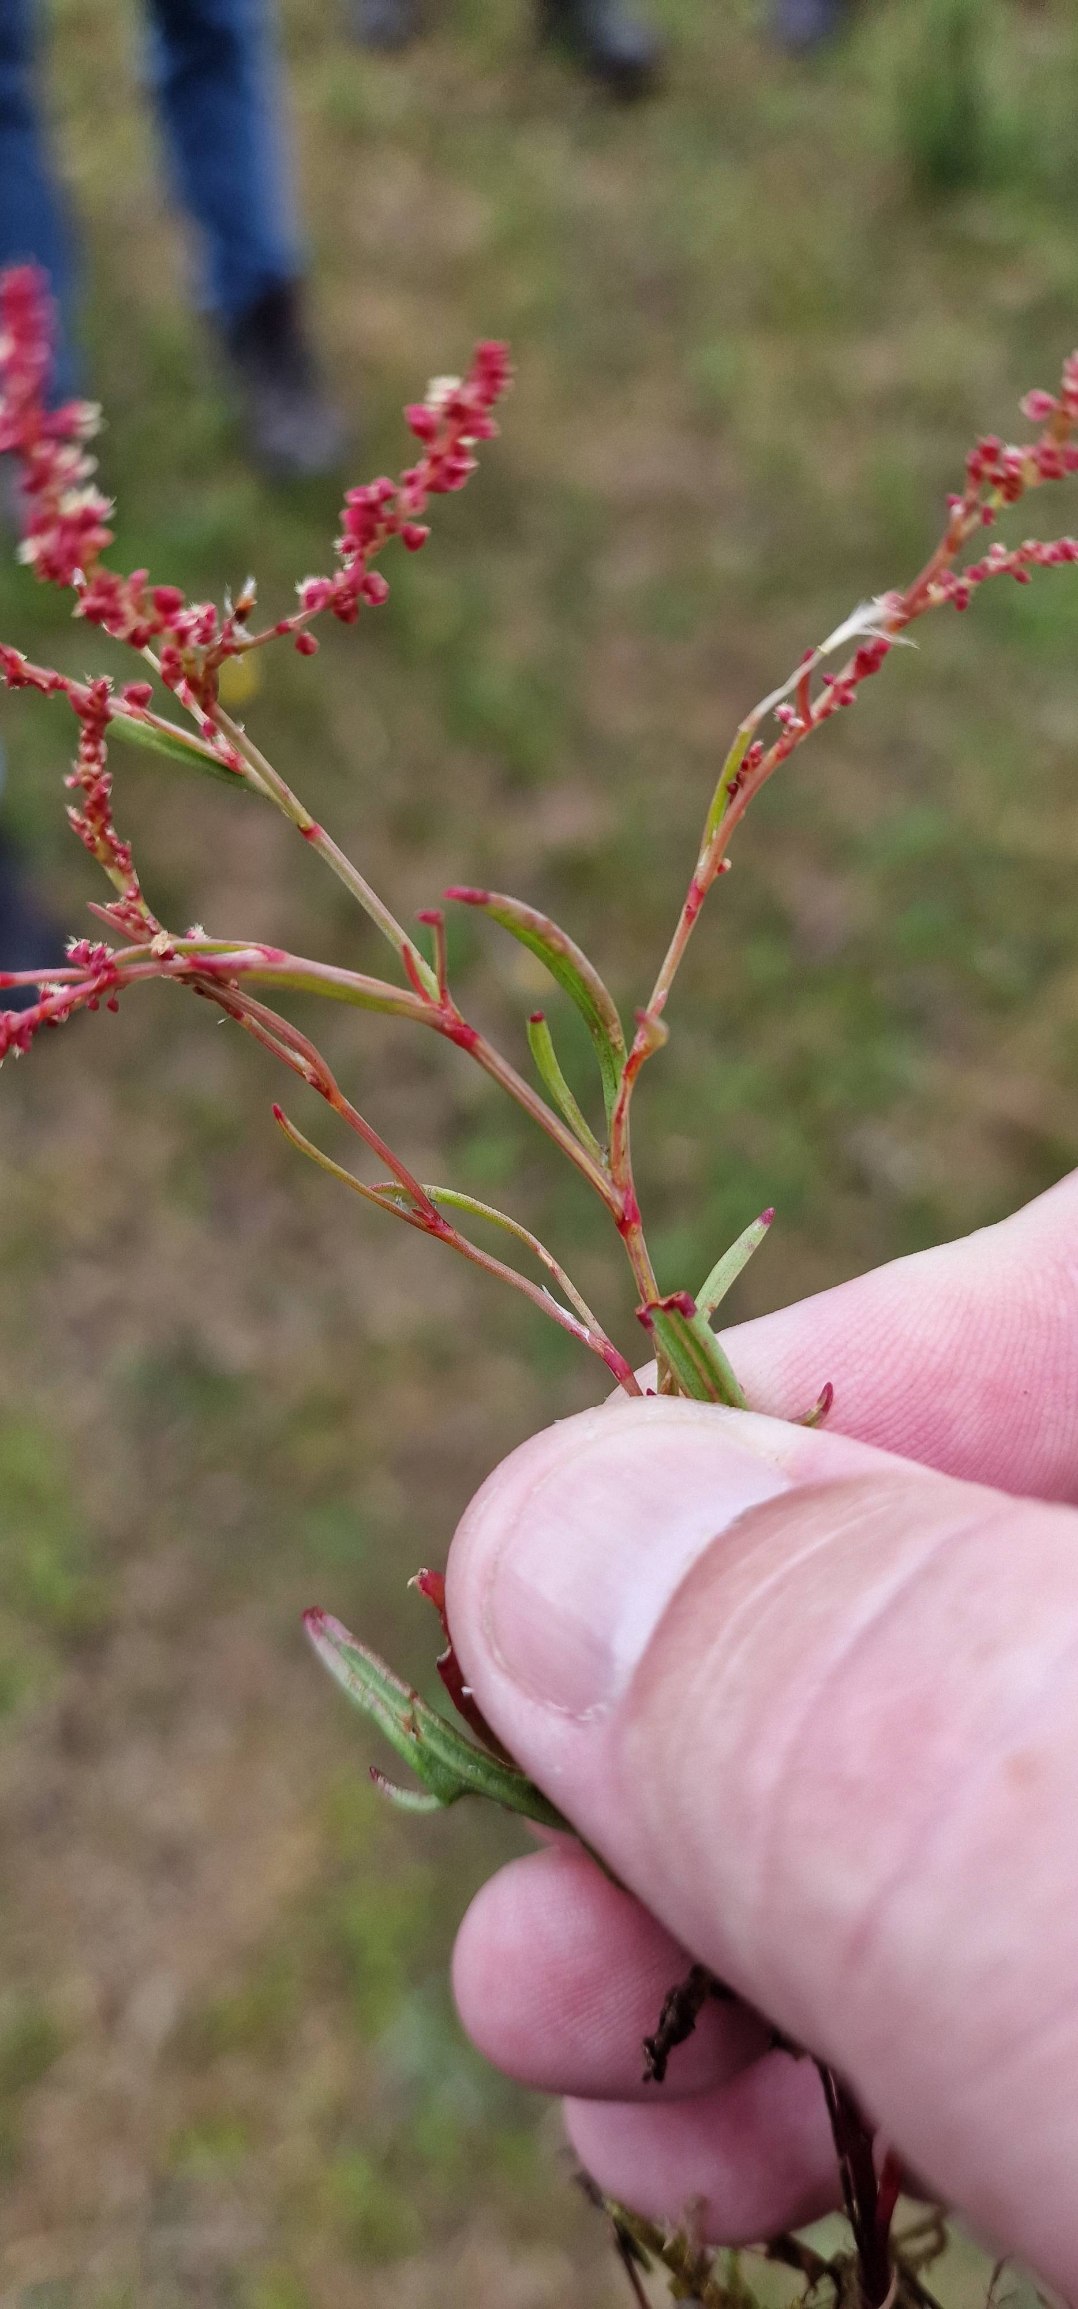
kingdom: Plantae
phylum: Tracheophyta
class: Magnoliopsida
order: Caryophyllales
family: Polygonaceae
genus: Rumex
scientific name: Rumex acetosella
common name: Rødknæ
